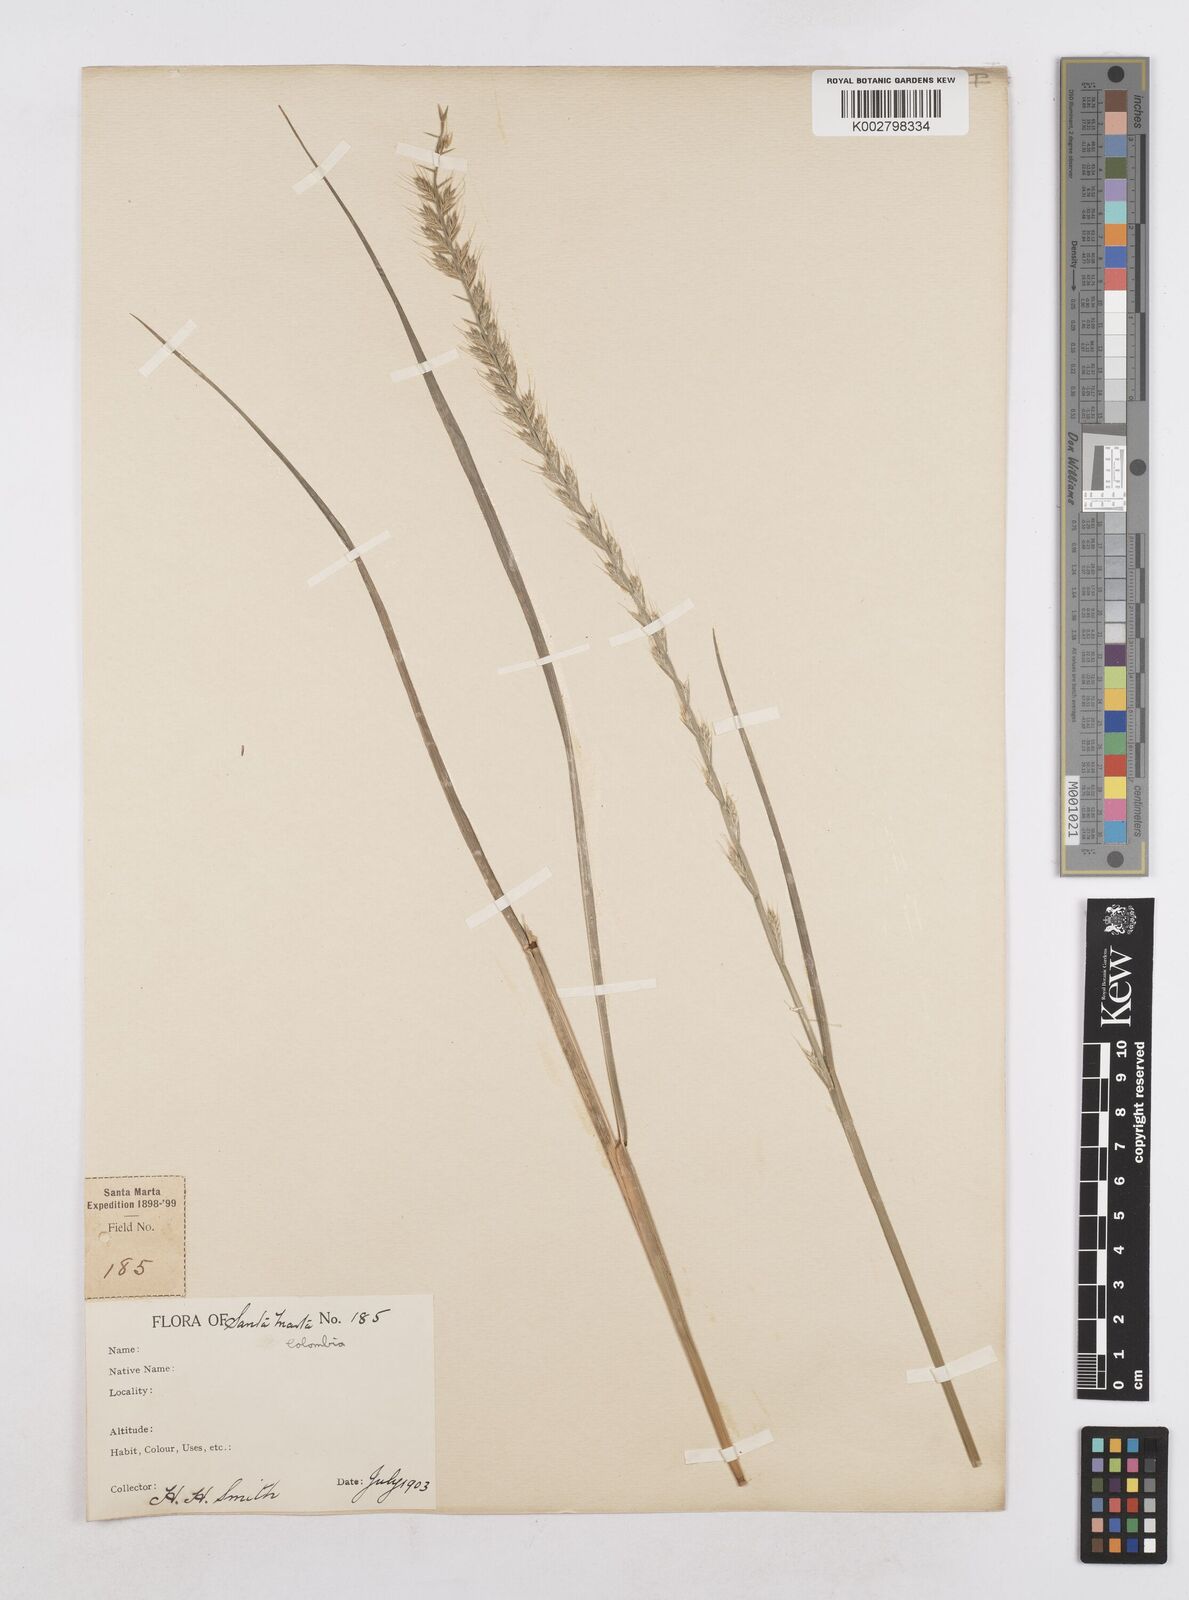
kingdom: Plantae
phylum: Tracheophyta
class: Liliopsida
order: Poales
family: Poaceae
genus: Lolium
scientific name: Lolium multiflorum
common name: Annual ryegrass
